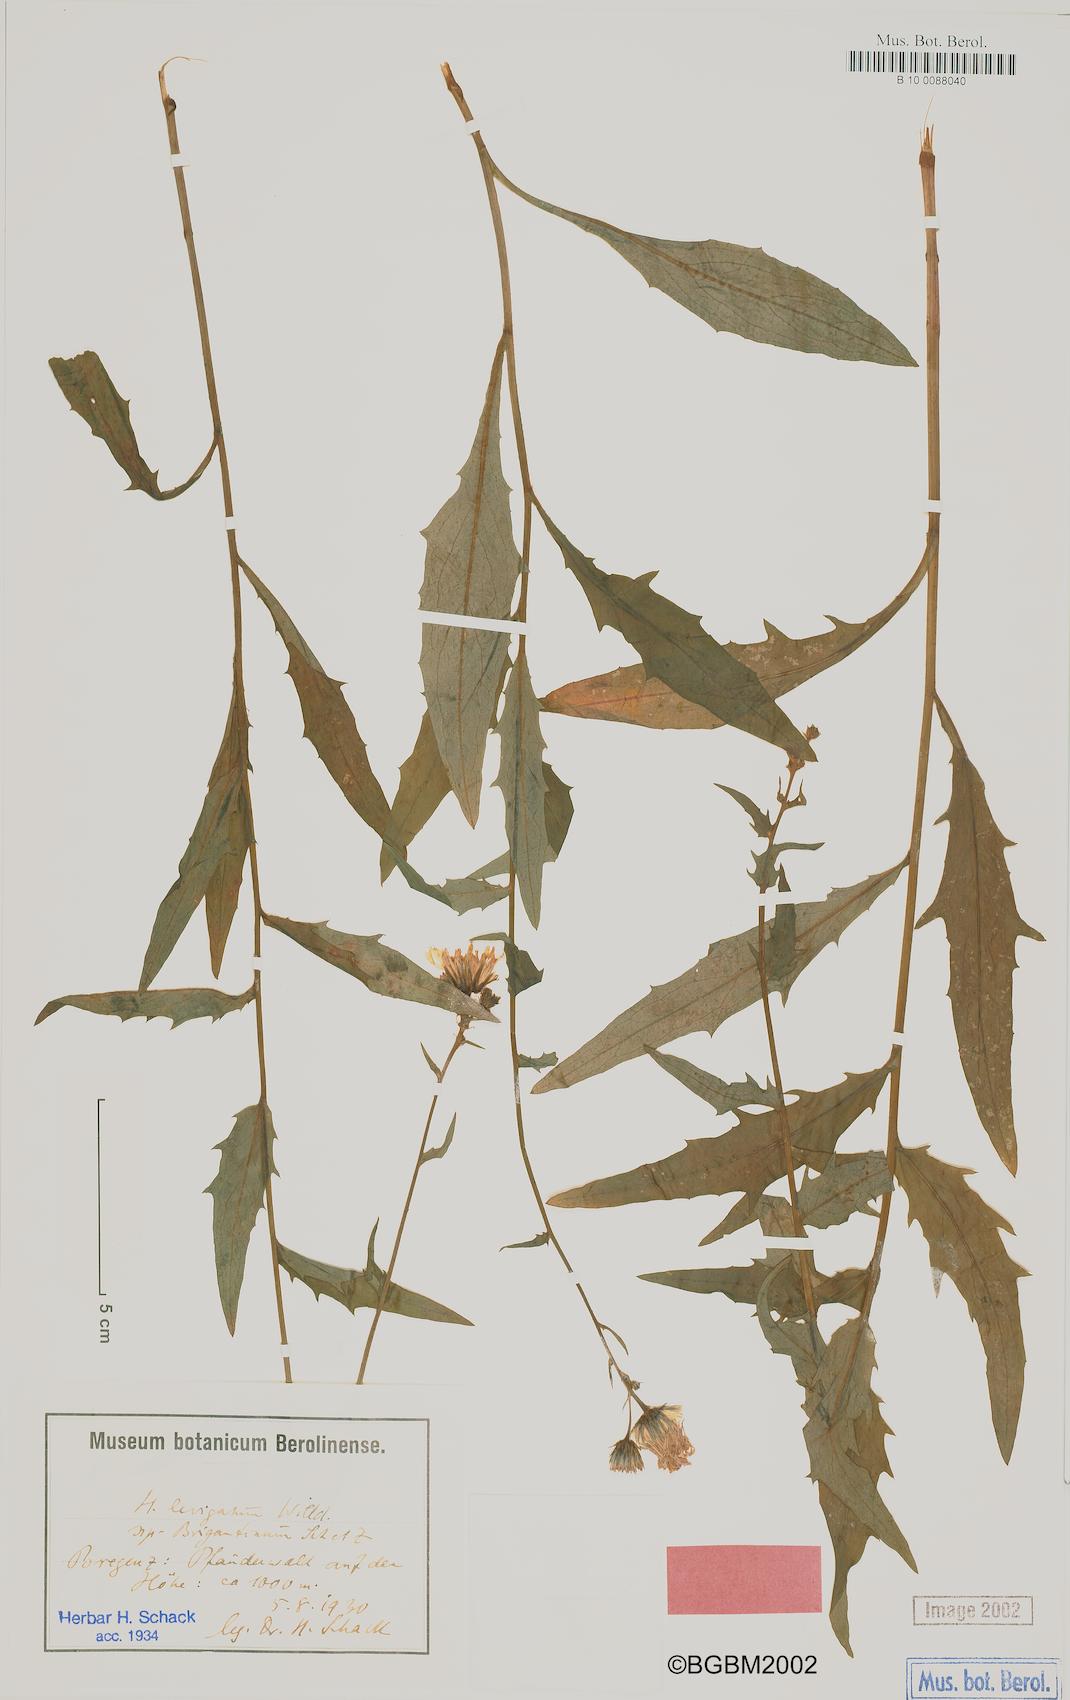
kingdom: Plantae
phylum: Tracheophyta
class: Magnoliopsida
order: Asterales
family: Asteraceae
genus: Hieracium
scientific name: Hieracium
